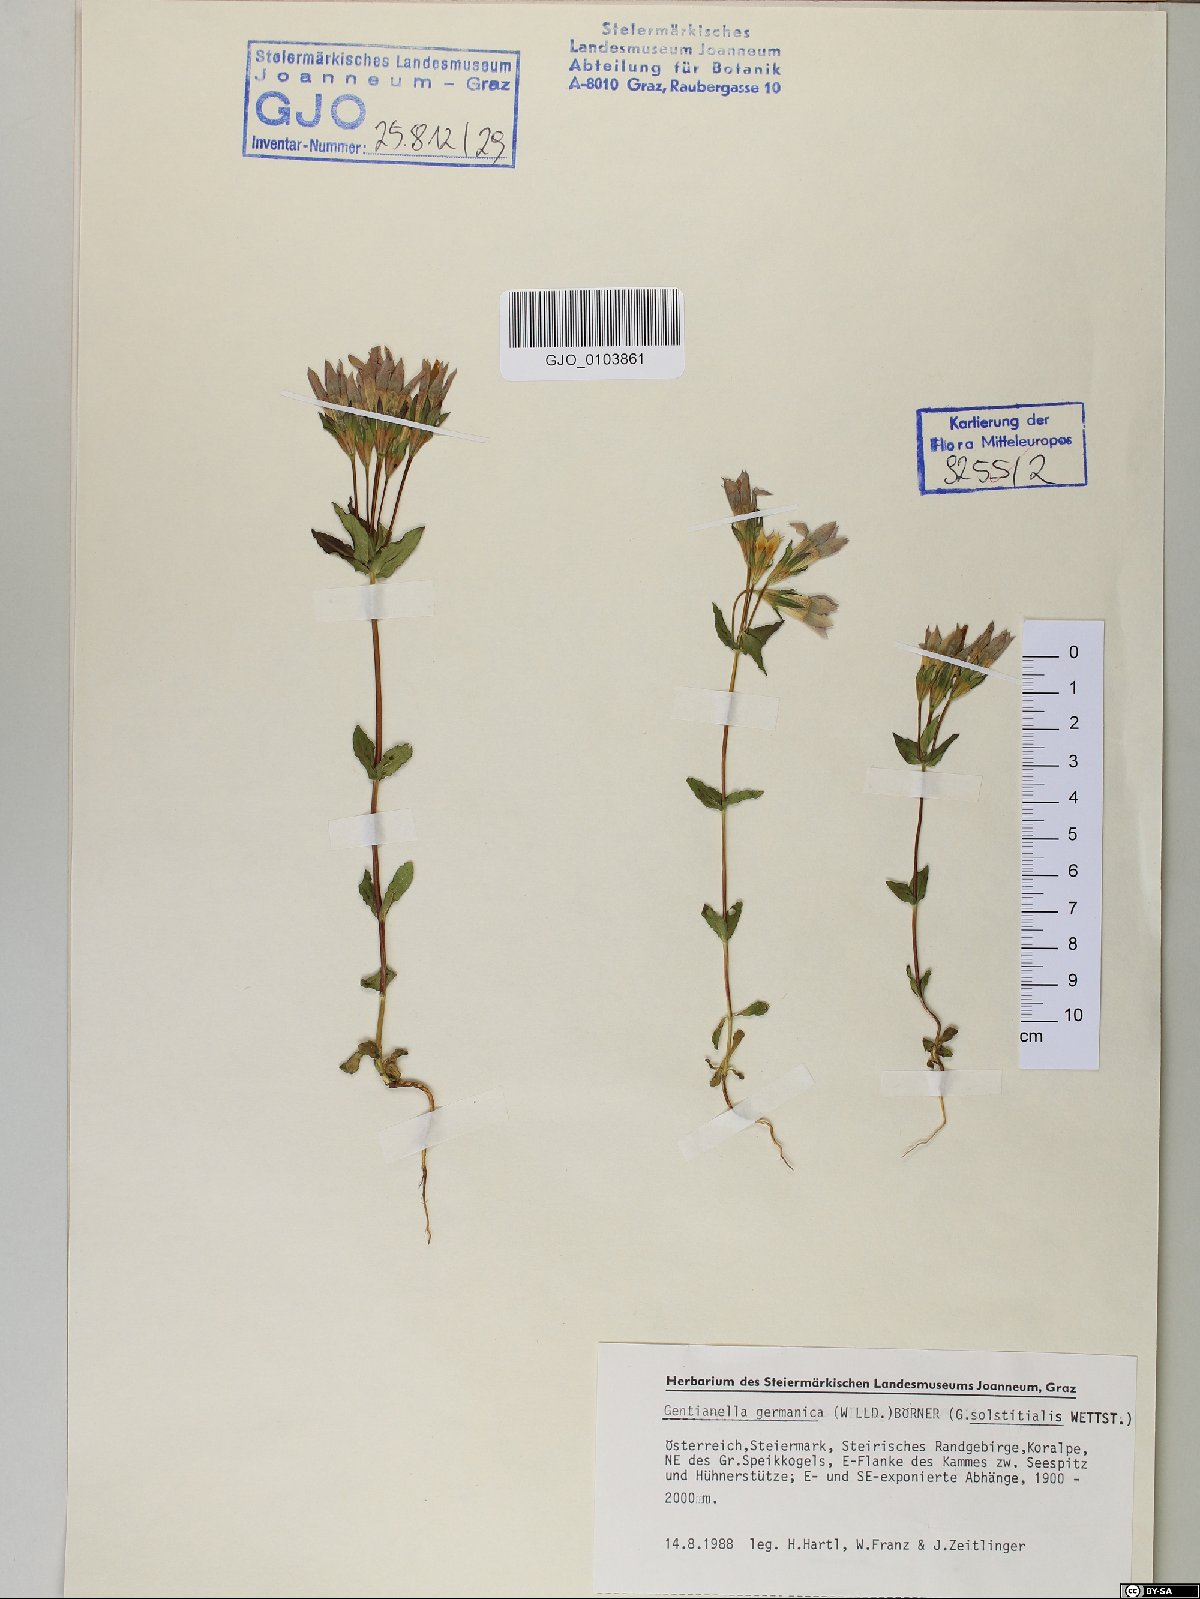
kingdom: Plantae
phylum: Tracheophyta
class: Magnoliopsida
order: Gentianales
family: Gentianaceae
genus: Gentianella
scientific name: Gentianella germanica
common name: Chiltern-gentian
